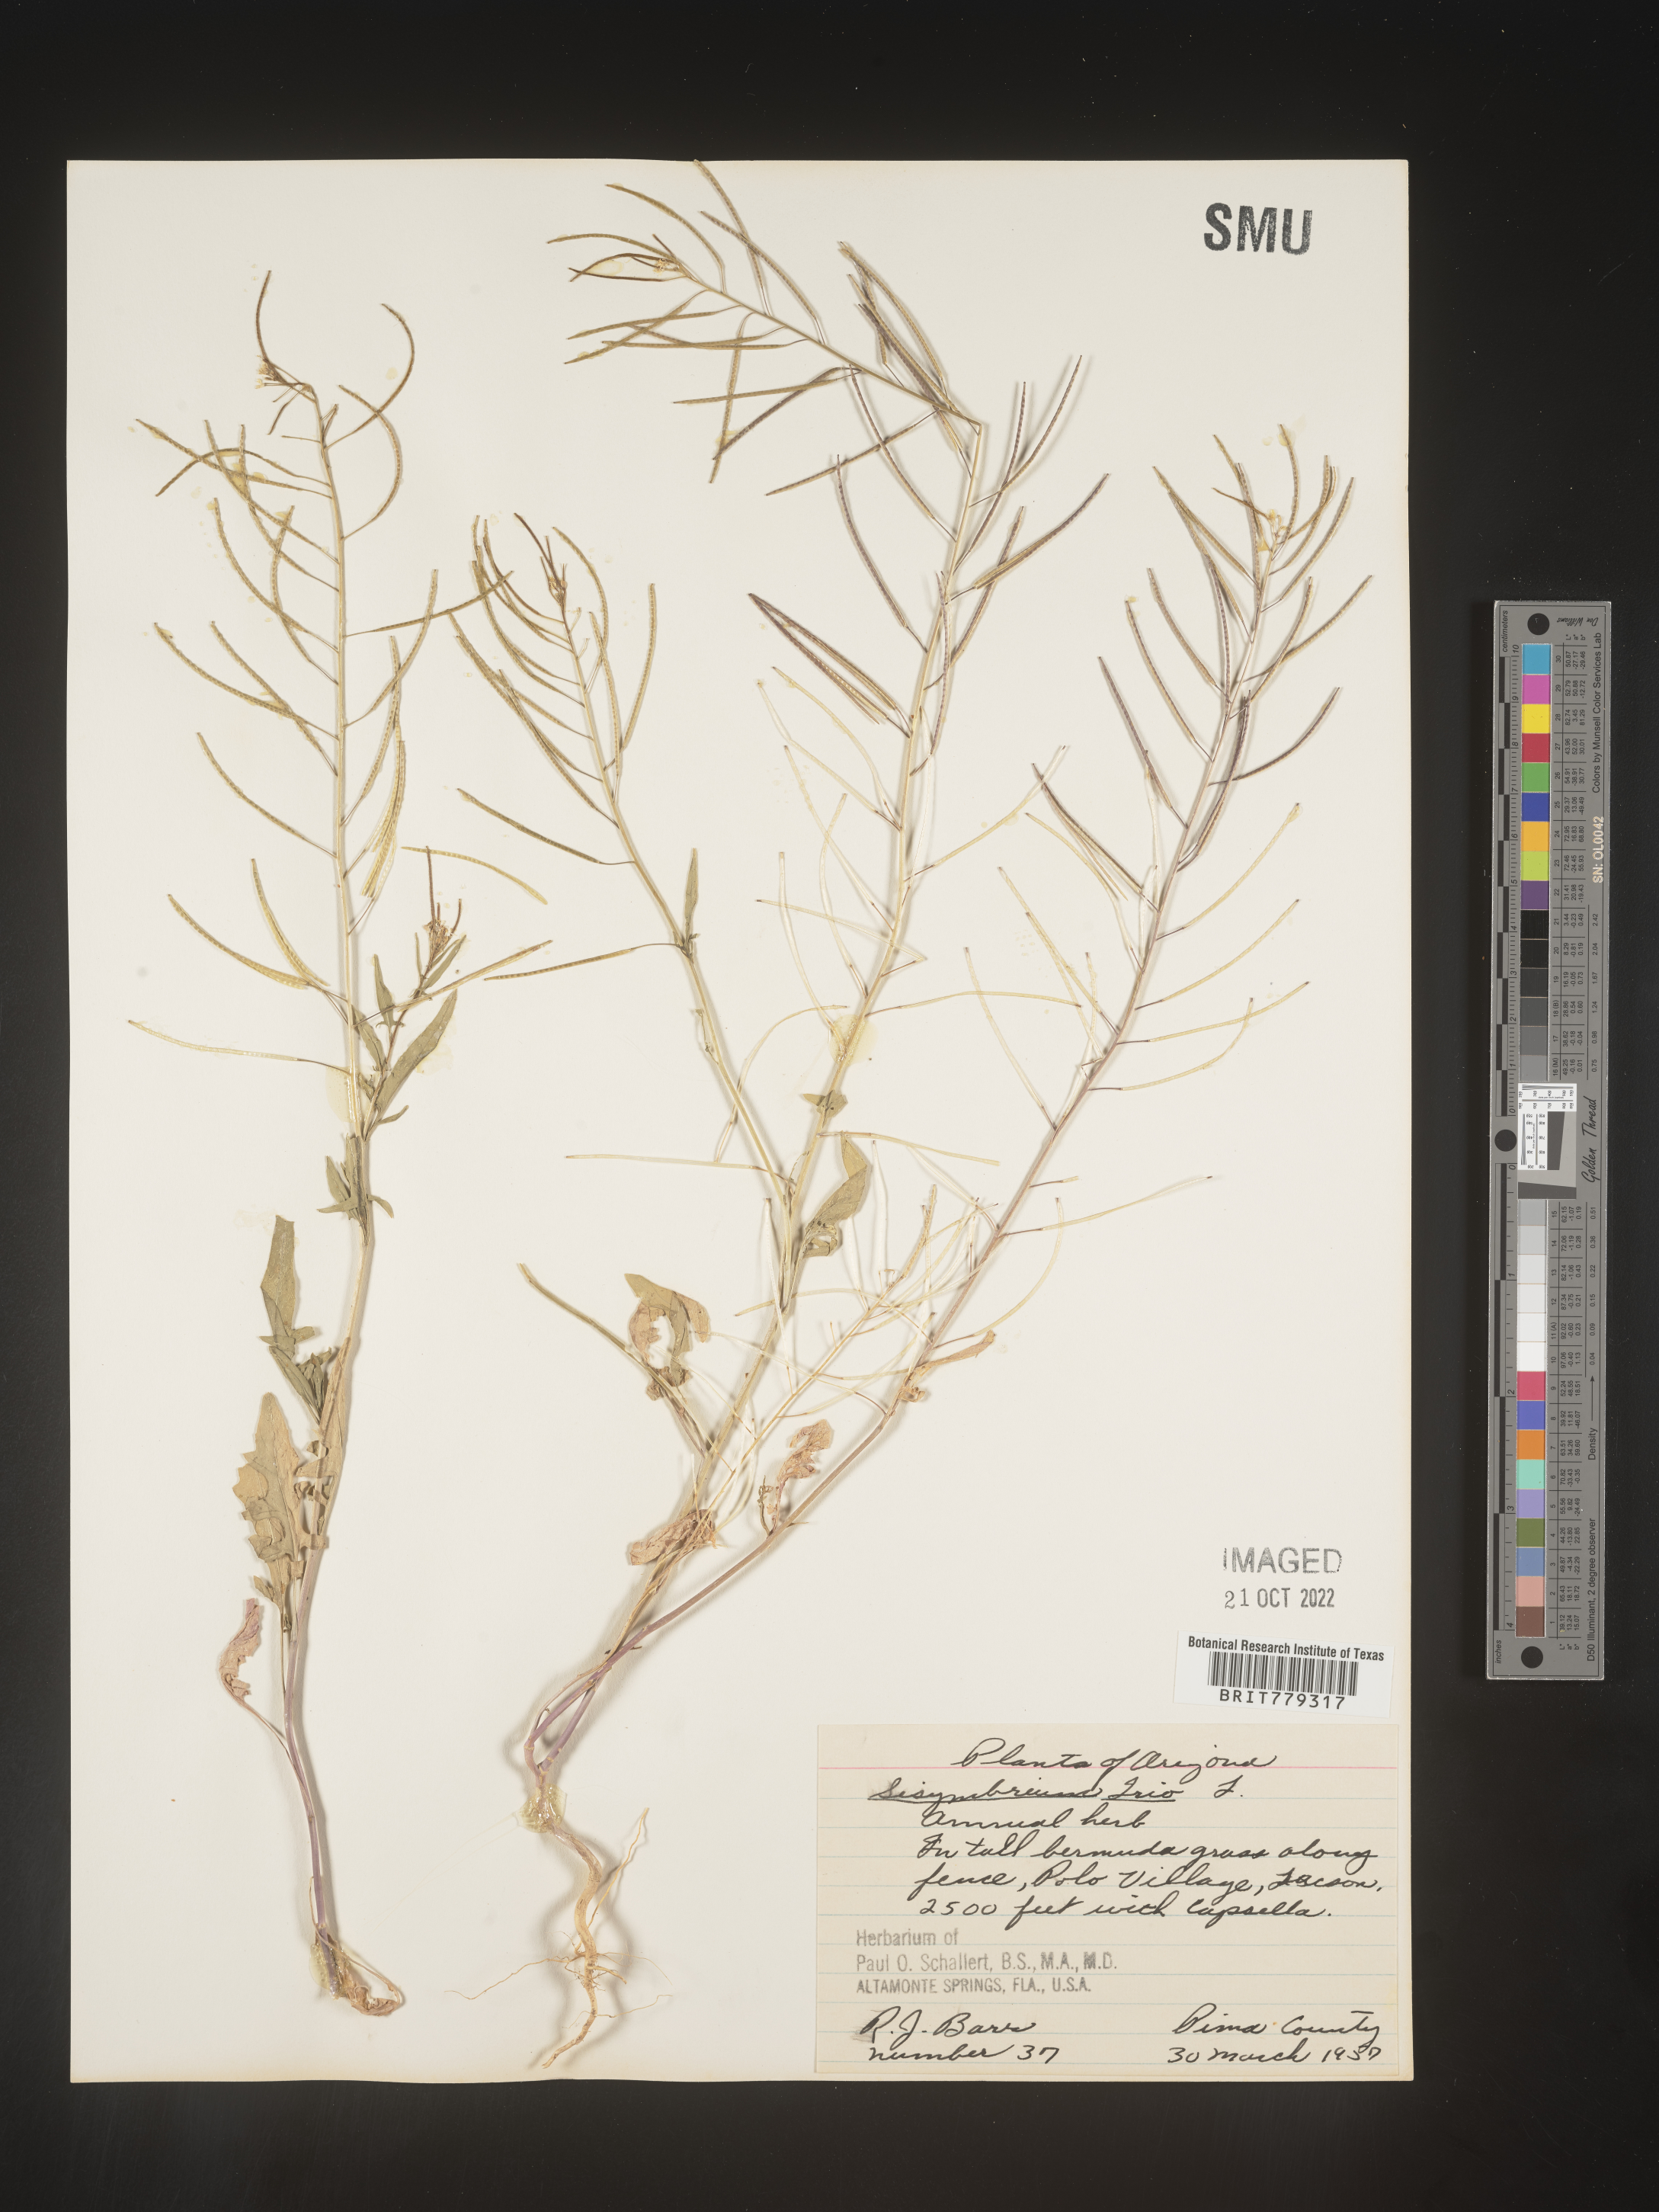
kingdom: Plantae
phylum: Tracheophyta
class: Magnoliopsida
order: Brassicales
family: Brassicaceae
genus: Sisymbrium
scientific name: Sisymbrium
